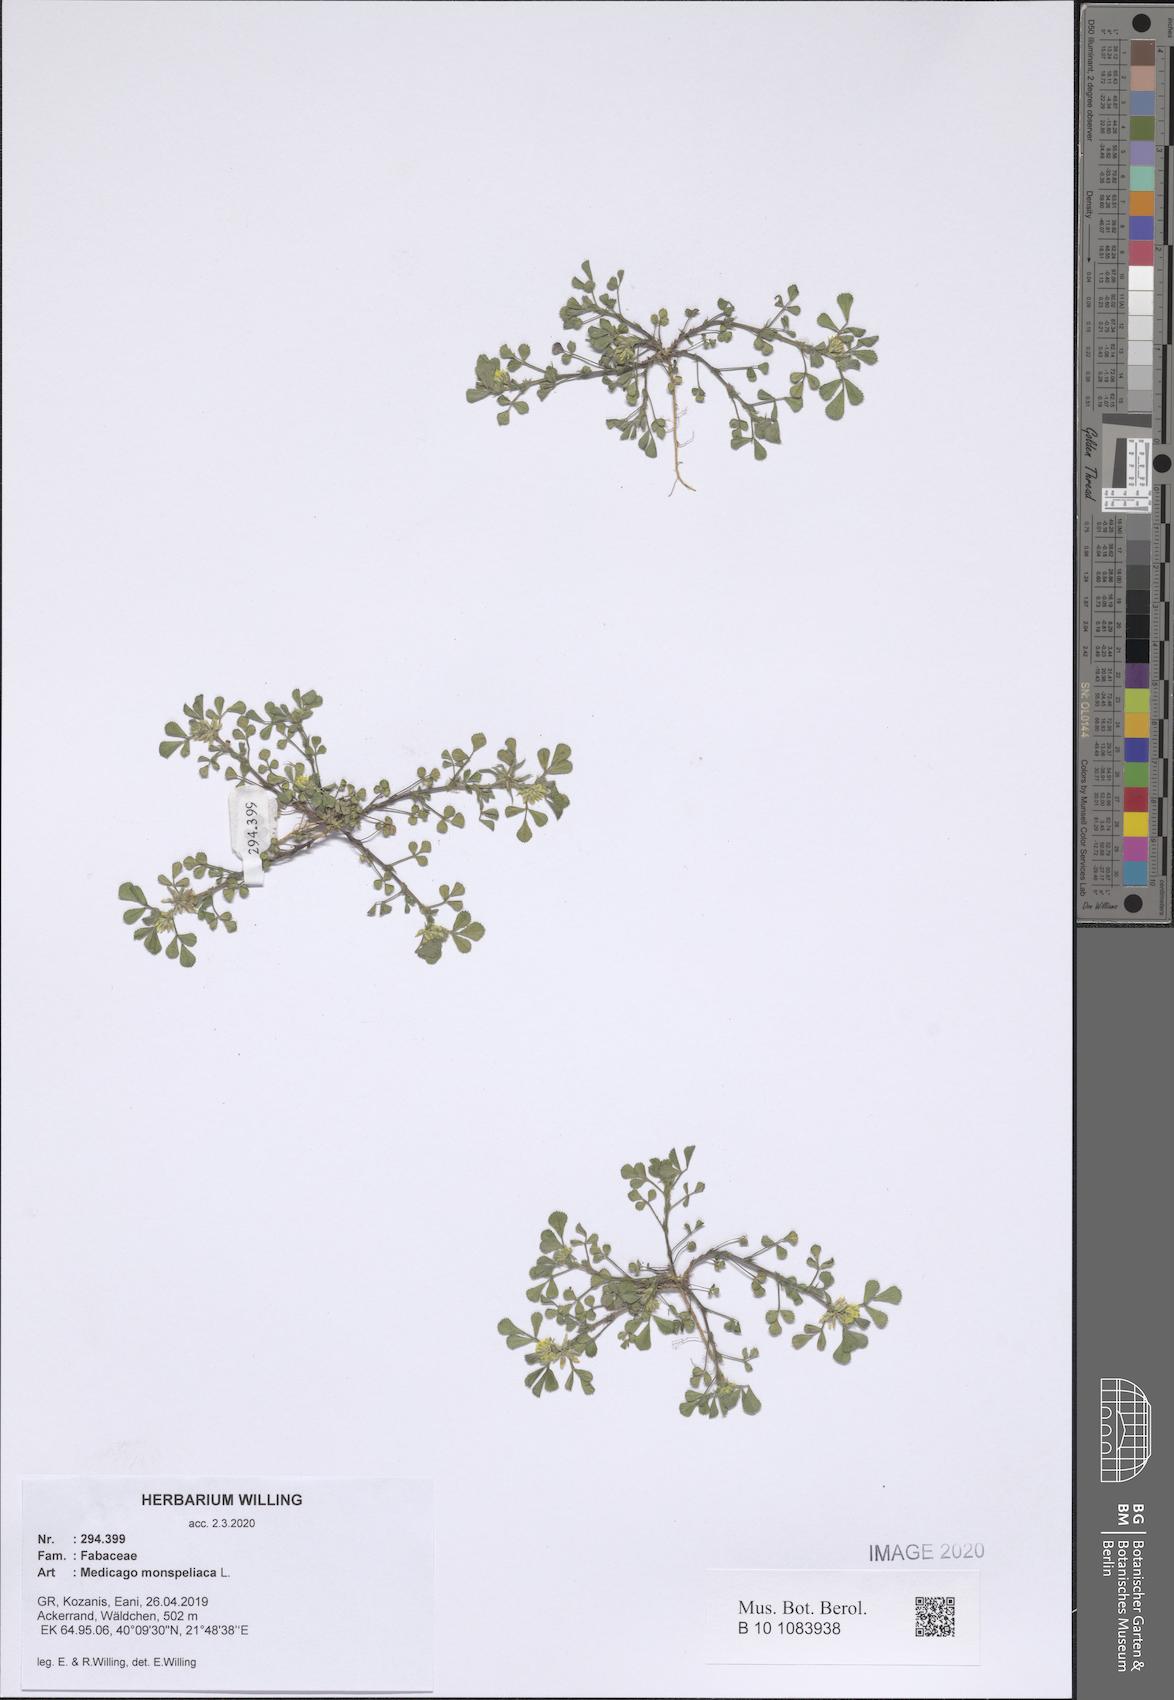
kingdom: Plantae
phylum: Tracheophyta
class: Magnoliopsida
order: Fabales
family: Fabaceae
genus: Medicago
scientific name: Medicago monspeliaca
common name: Hairy medick
